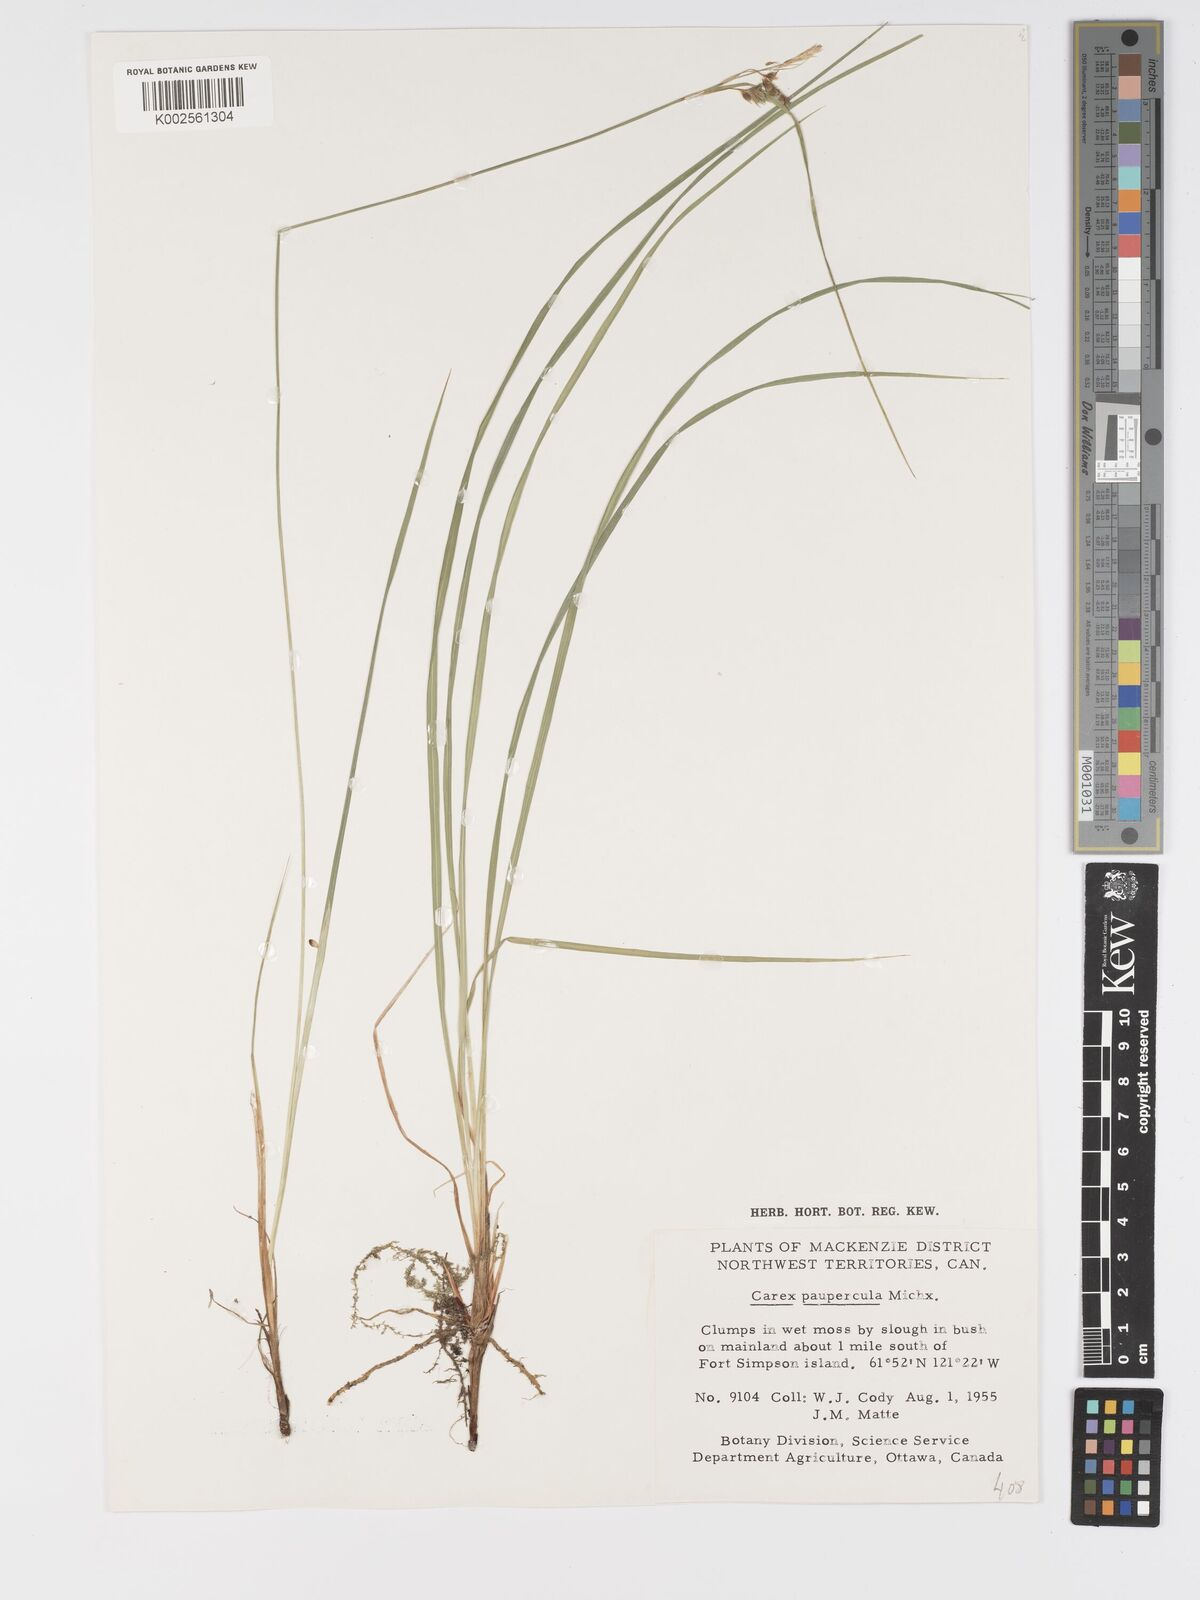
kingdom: Plantae
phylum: Tracheophyta
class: Liliopsida
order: Poales
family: Cyperaceae
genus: Carex
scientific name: Carex magellanica
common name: Bog sedge
